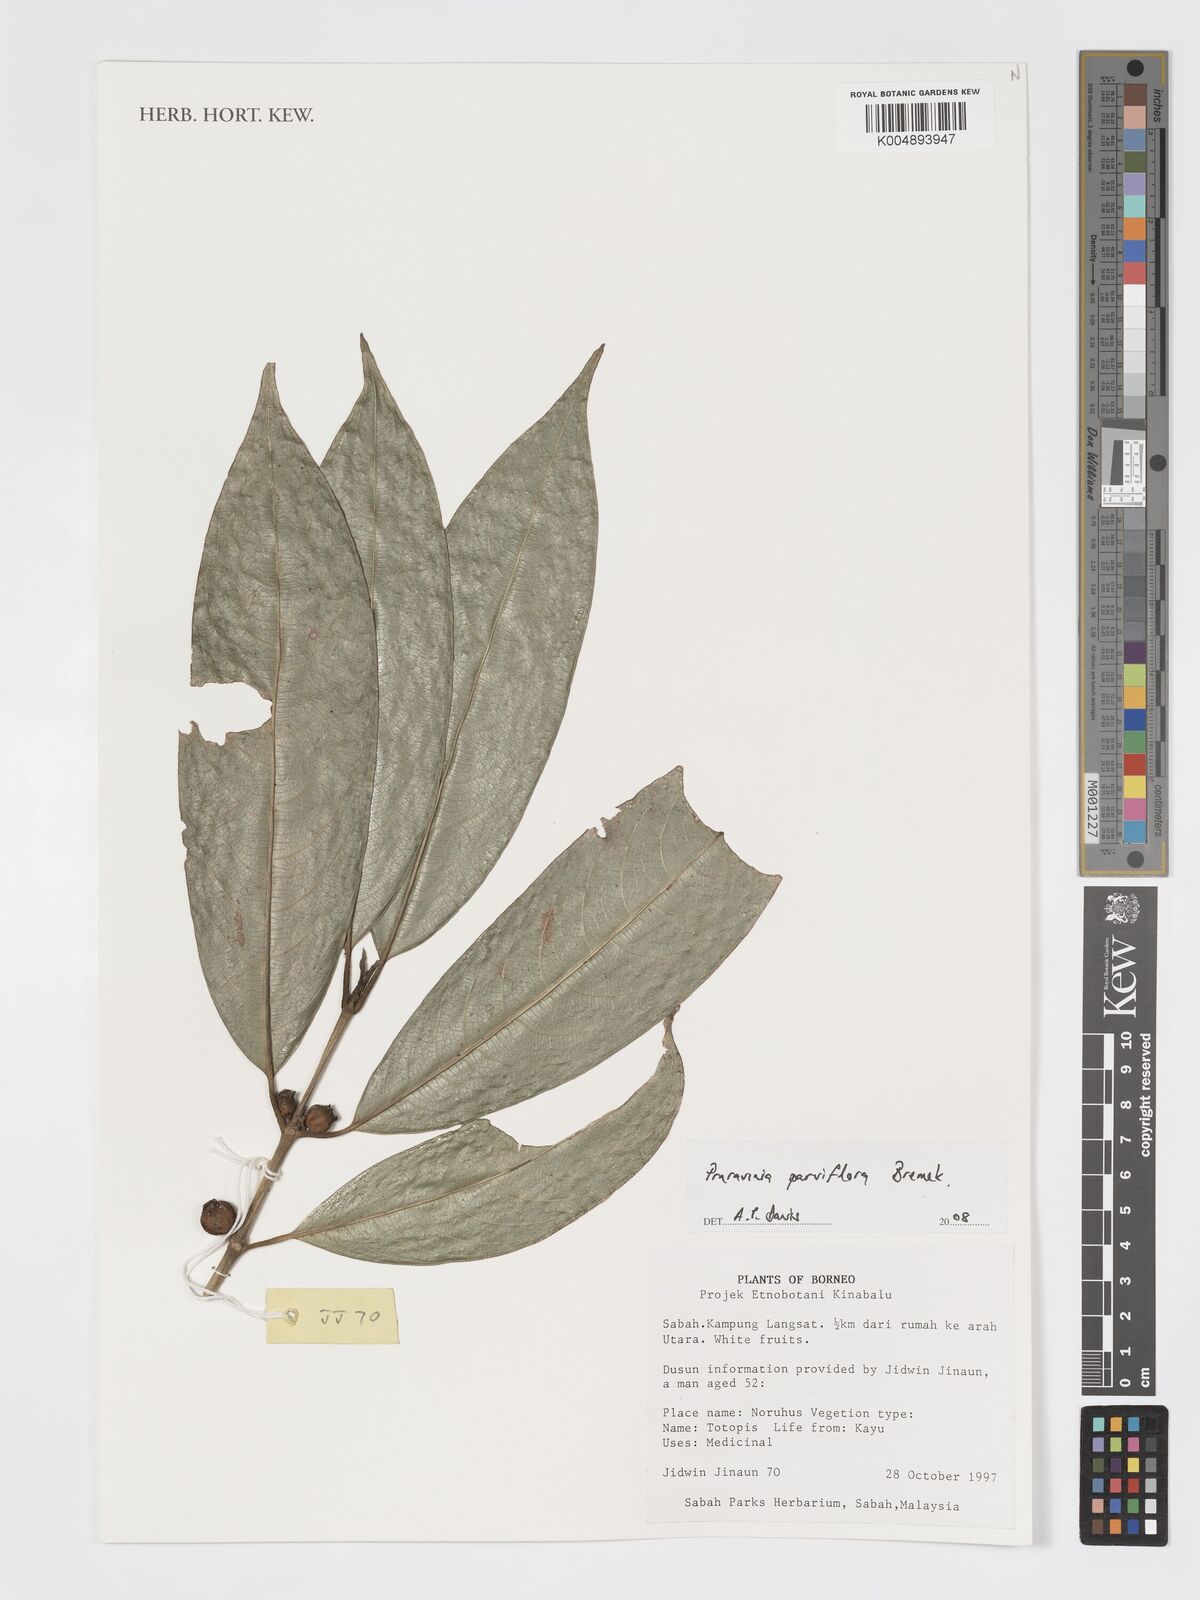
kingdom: Plantae
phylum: Tracheophyta
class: Magnoliopsida
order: Gentianales
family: Rubiaceae
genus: Praravinia
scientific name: Praravinia parviflora
